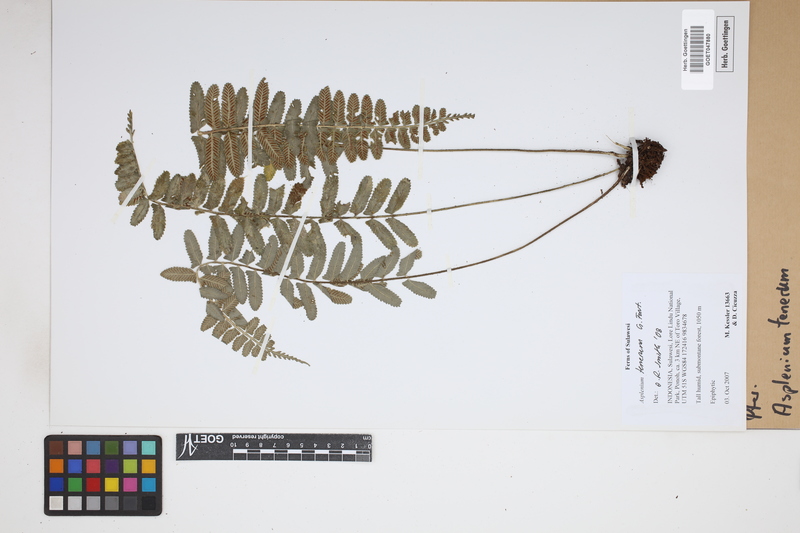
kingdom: Plantae
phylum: Tracheophyta
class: Polypodiopsida
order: Polypodiales
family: Aspleniaceae
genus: Asplenium
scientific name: Asplenium tenerum
